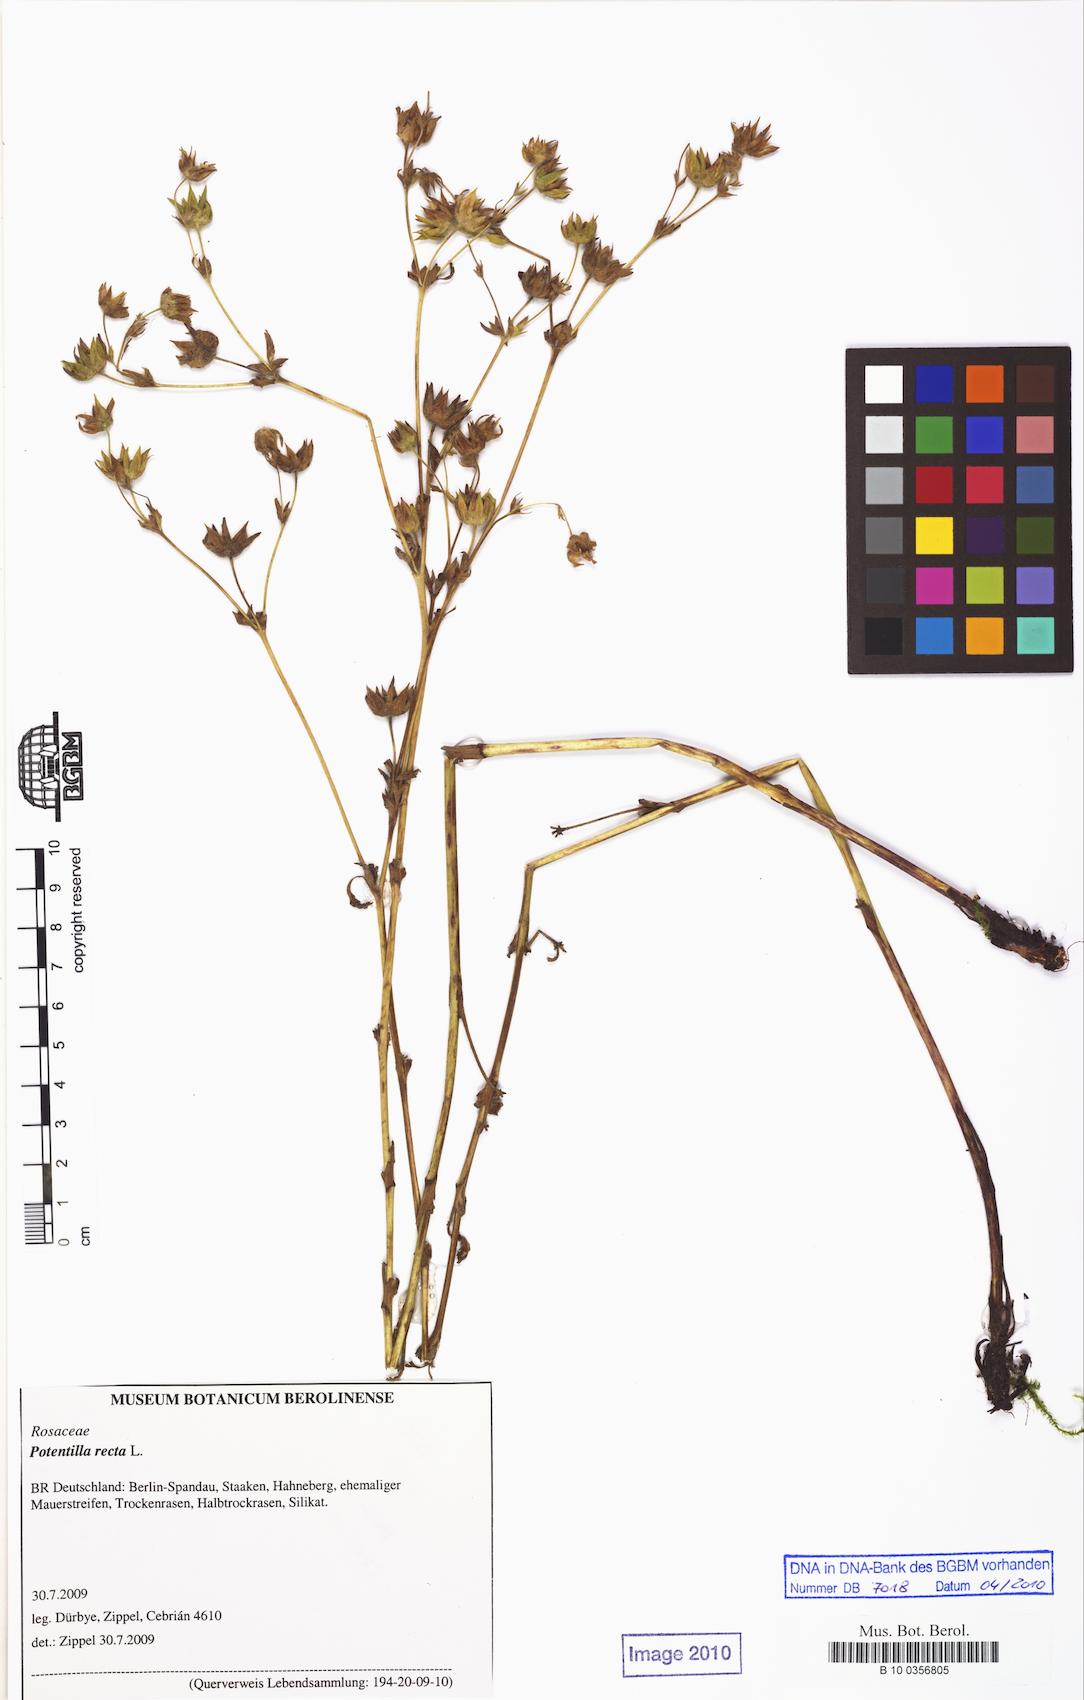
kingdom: Plantae
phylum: Tracheophyta
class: Magnoliopsida
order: Rosales
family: Rosaceae
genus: Potentilla
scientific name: Potentilla recta
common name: Sulphur cinquefoil
